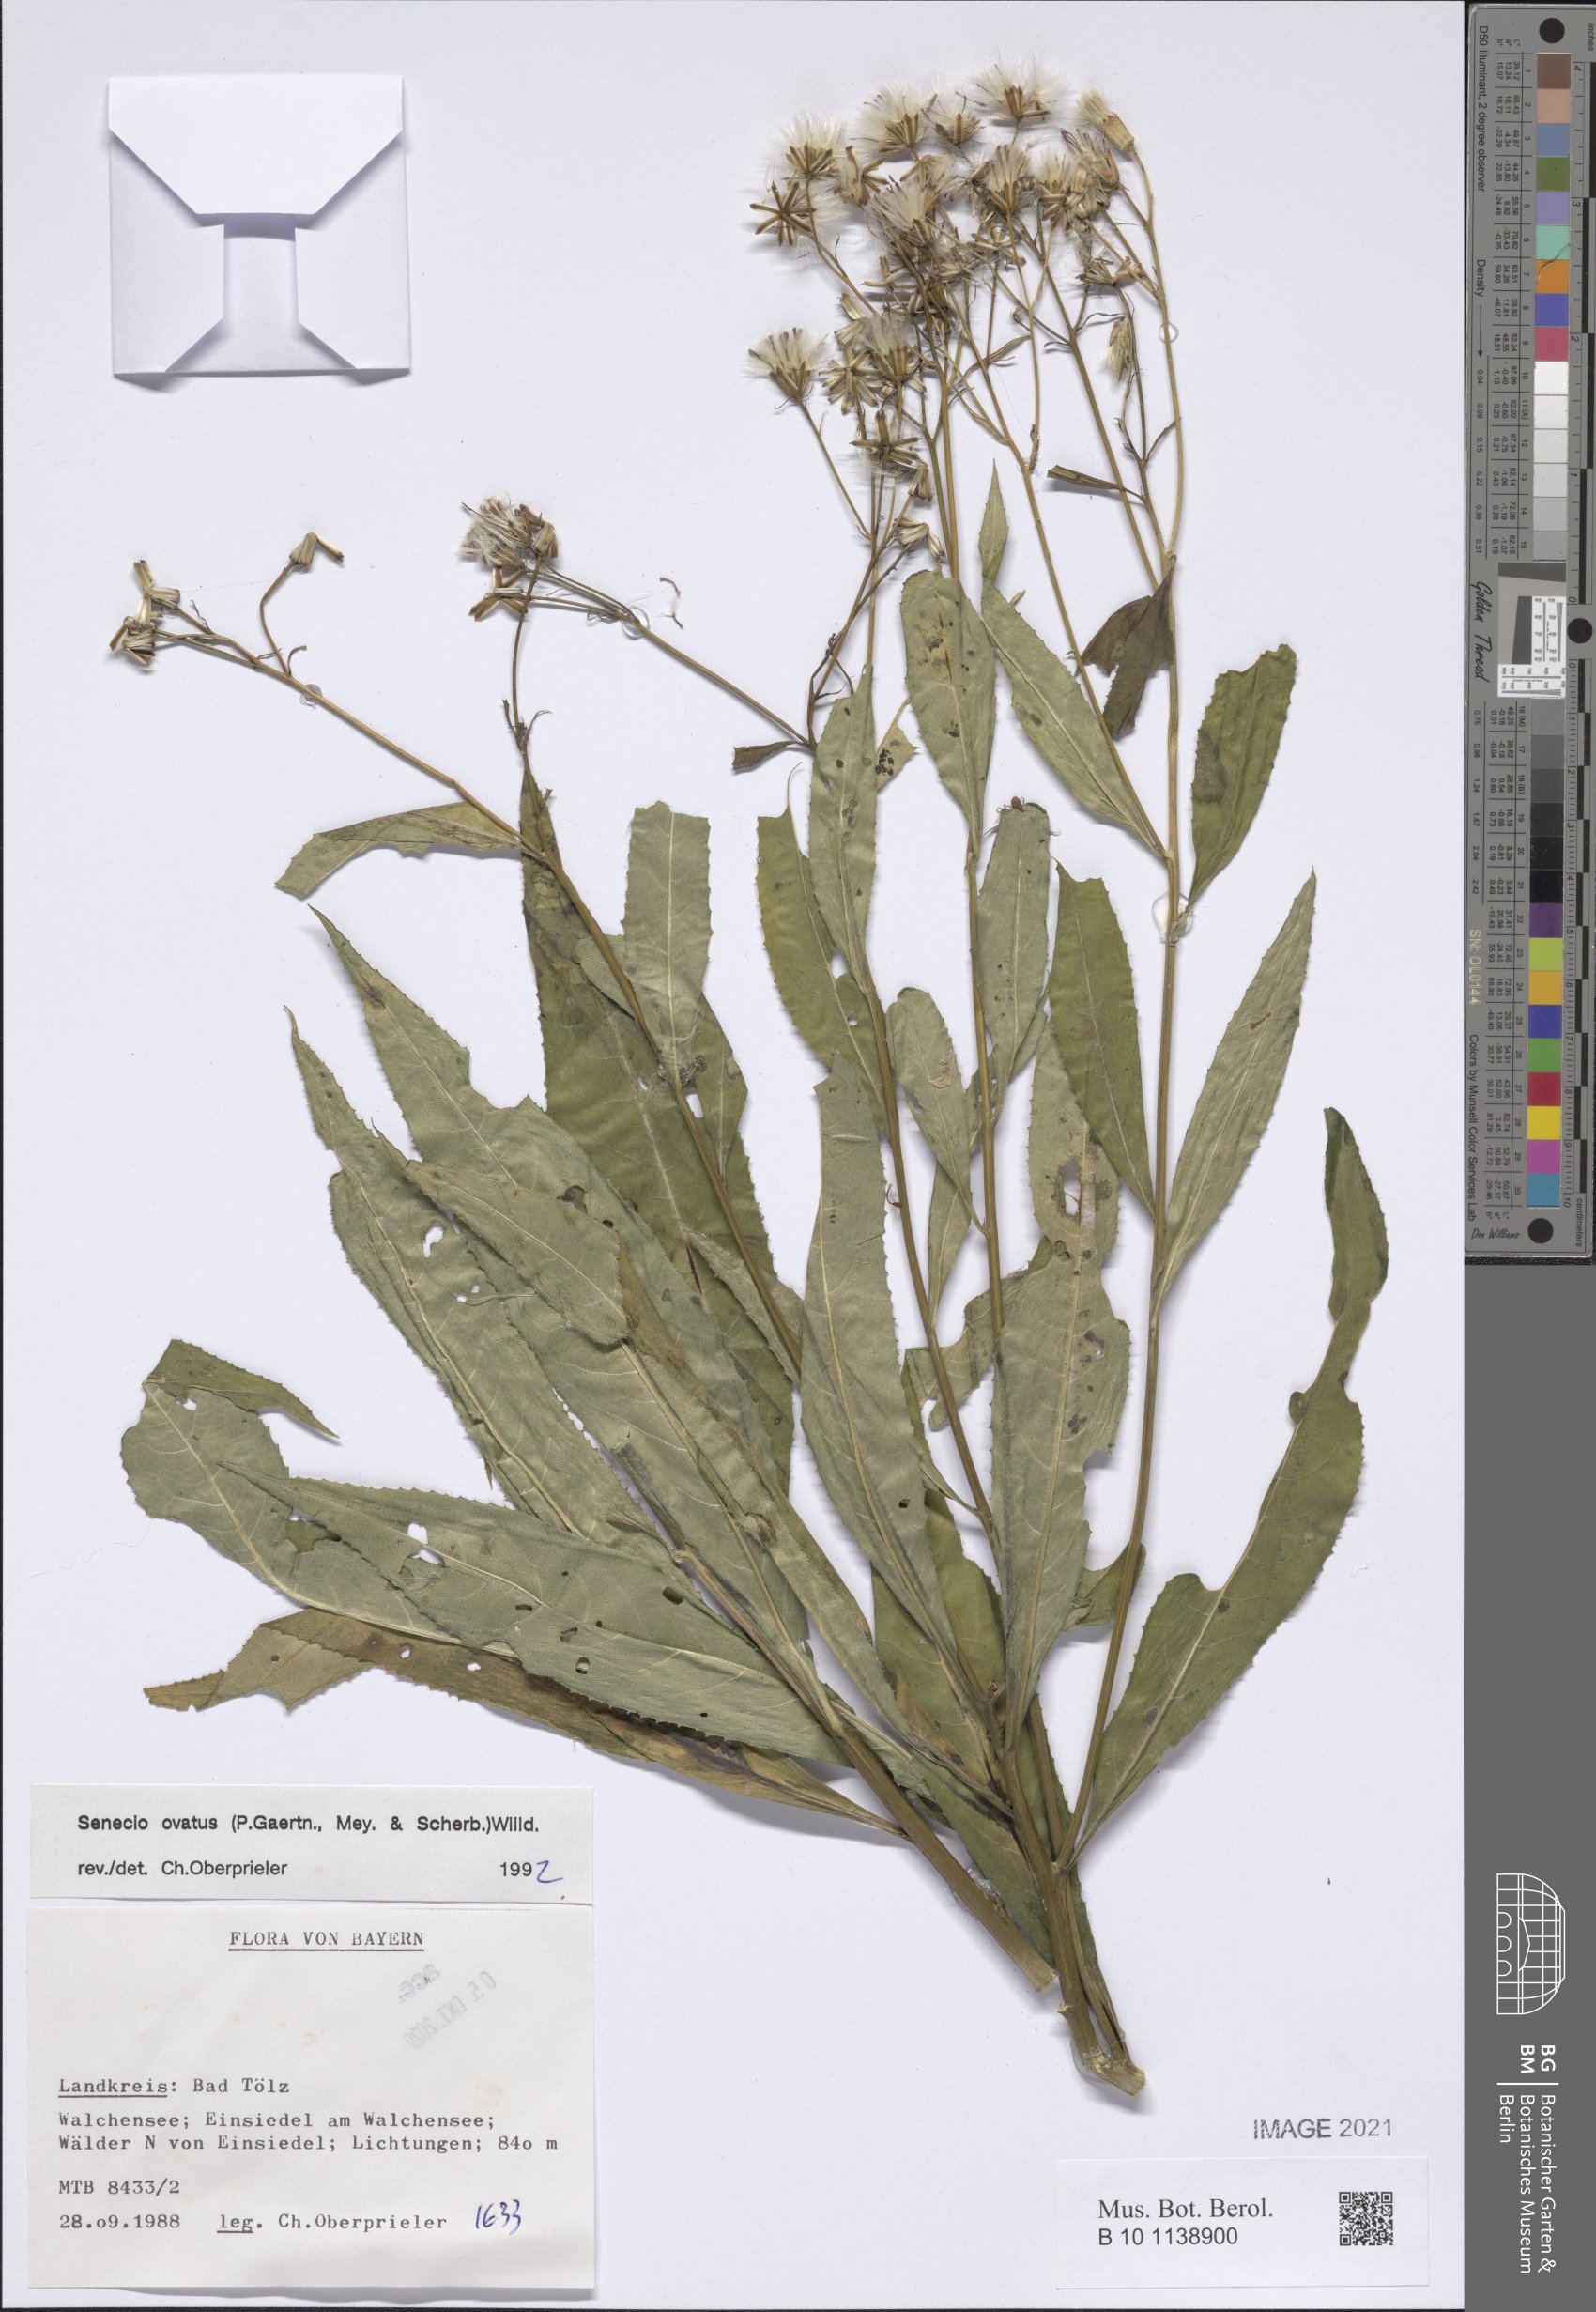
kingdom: Plantae
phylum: Tracheophyta
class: Magnoliopsida
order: Asterales
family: Asteraceae
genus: Senecio
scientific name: Senecio ovatus
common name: Wood ragwort
